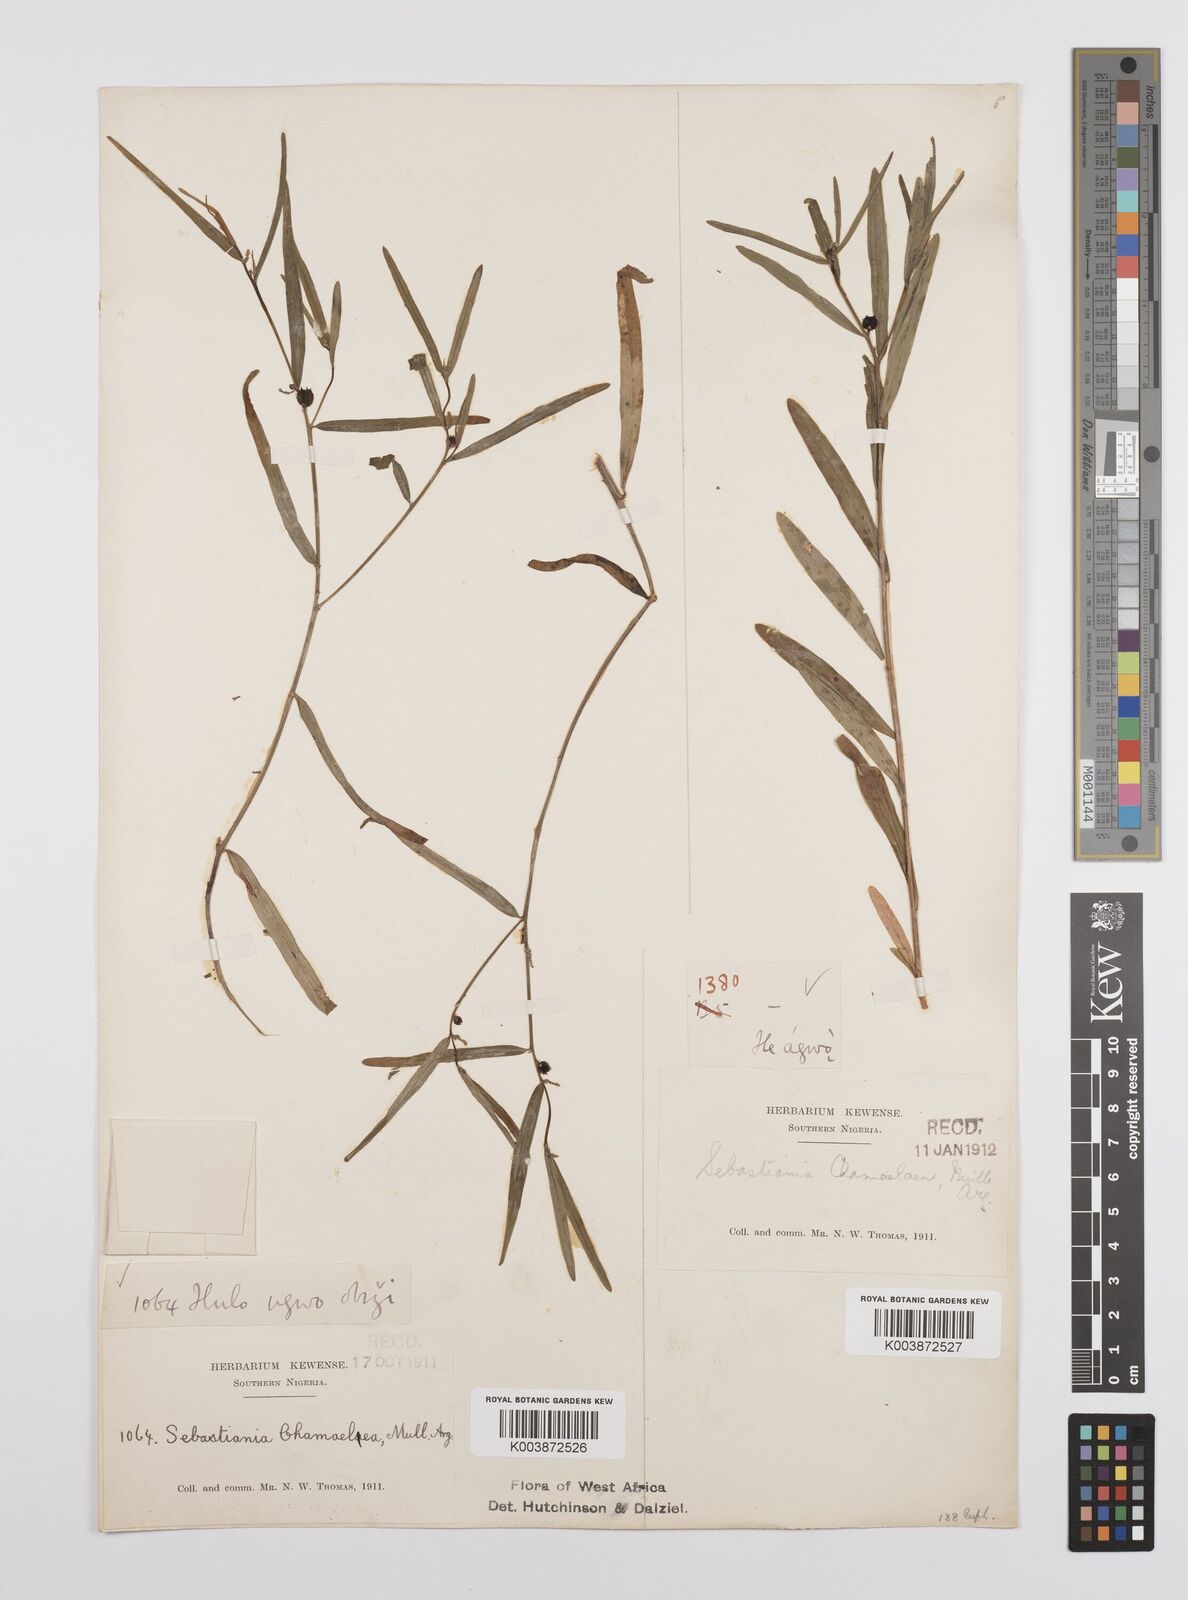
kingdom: Plantae
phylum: Tracheophyta
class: Magnoliopsida
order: Malpighiales
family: Euphorbiaceae
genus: Microstachys
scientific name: Microstachys chamaelea
